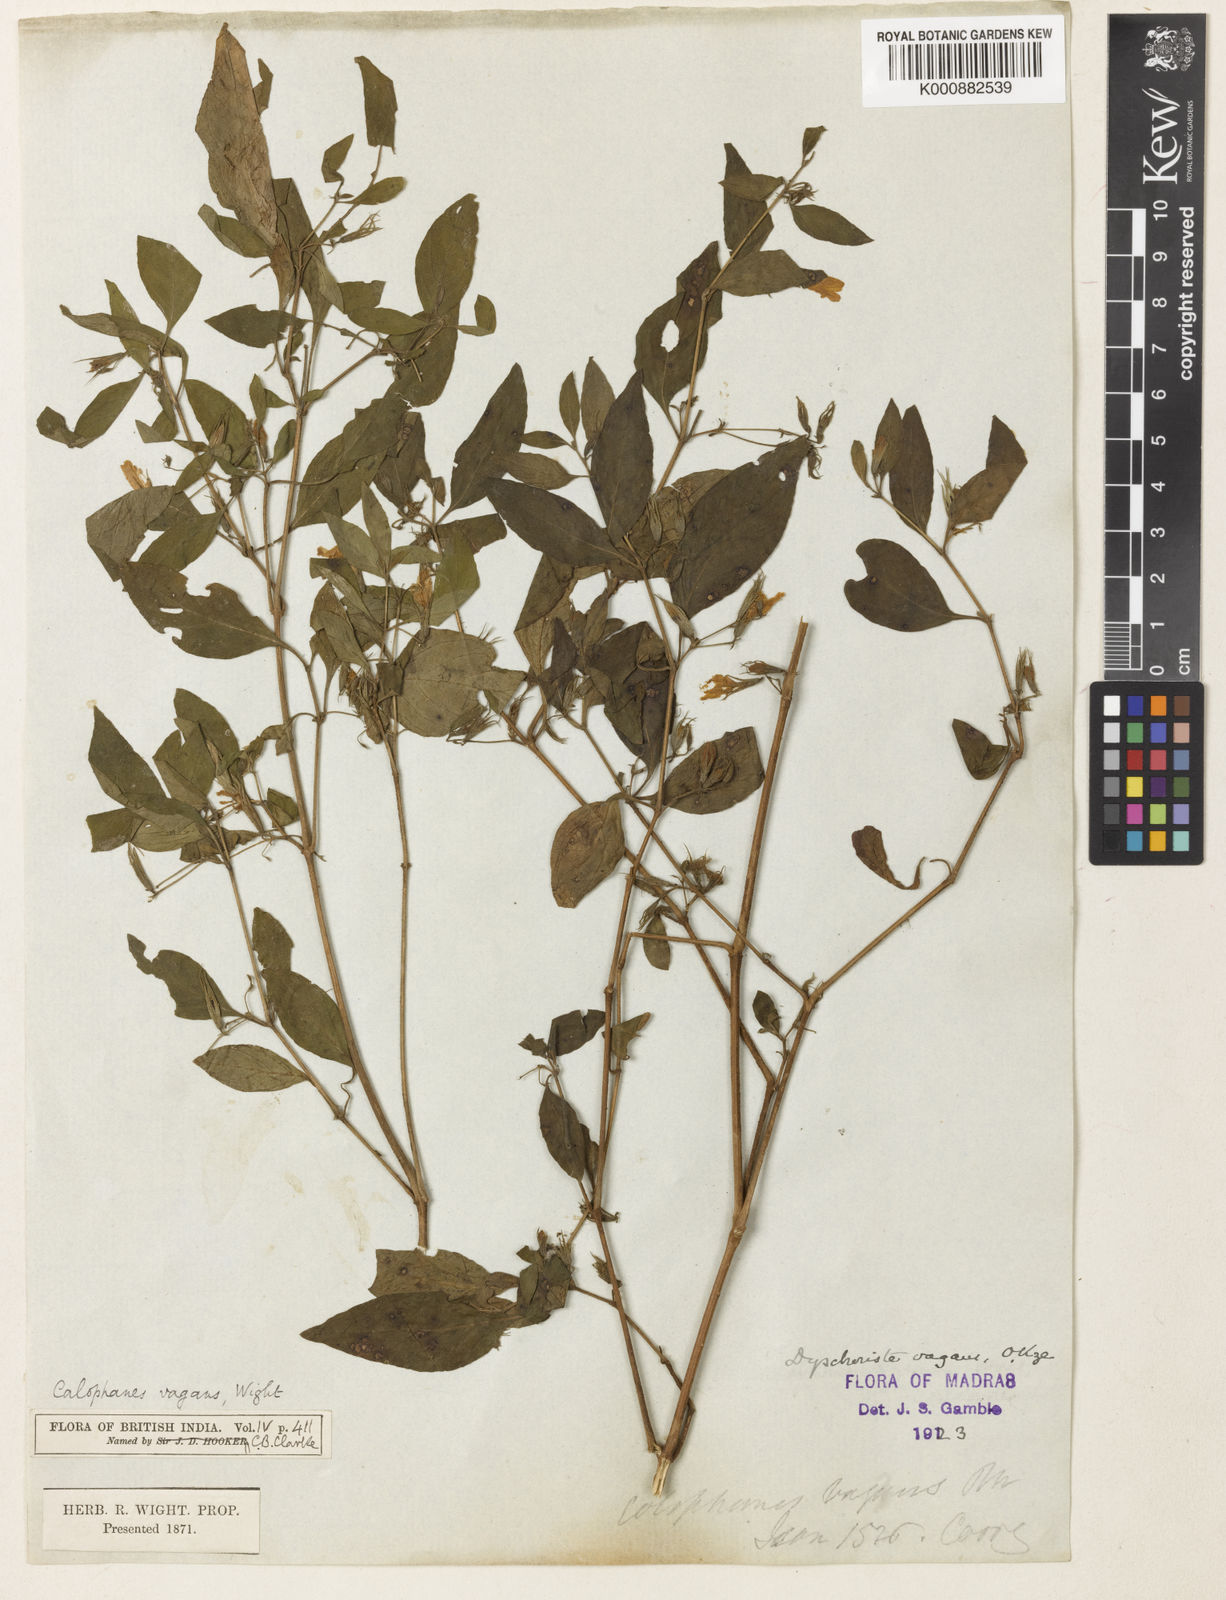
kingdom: Plantae
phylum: Tracheophyta
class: Magnoliopsida
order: Lamiales
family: Acanthaceae
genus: Dyschoriste
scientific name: Dyschoriste vagans
